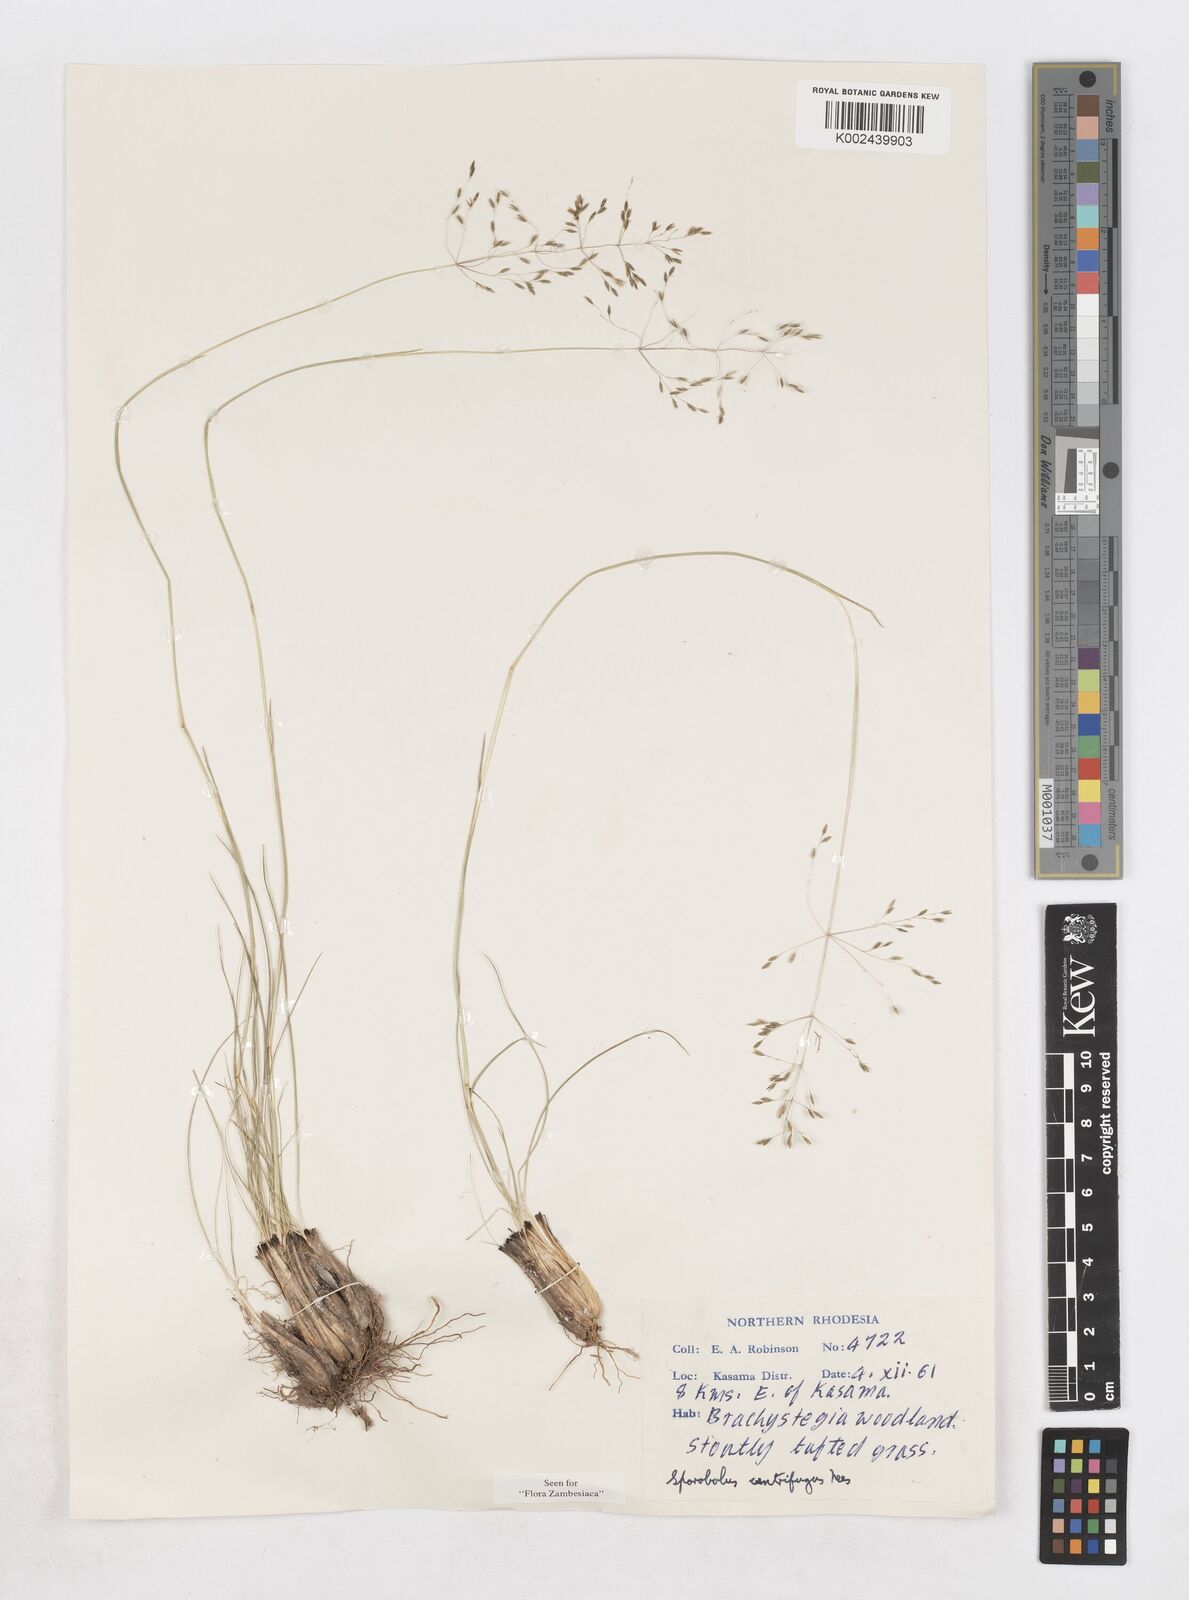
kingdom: Plantae
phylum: Tracheophyta
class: Liliopsida
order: Poales
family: Poaceae
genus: Sporobolus
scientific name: Sporobolus subulatus
